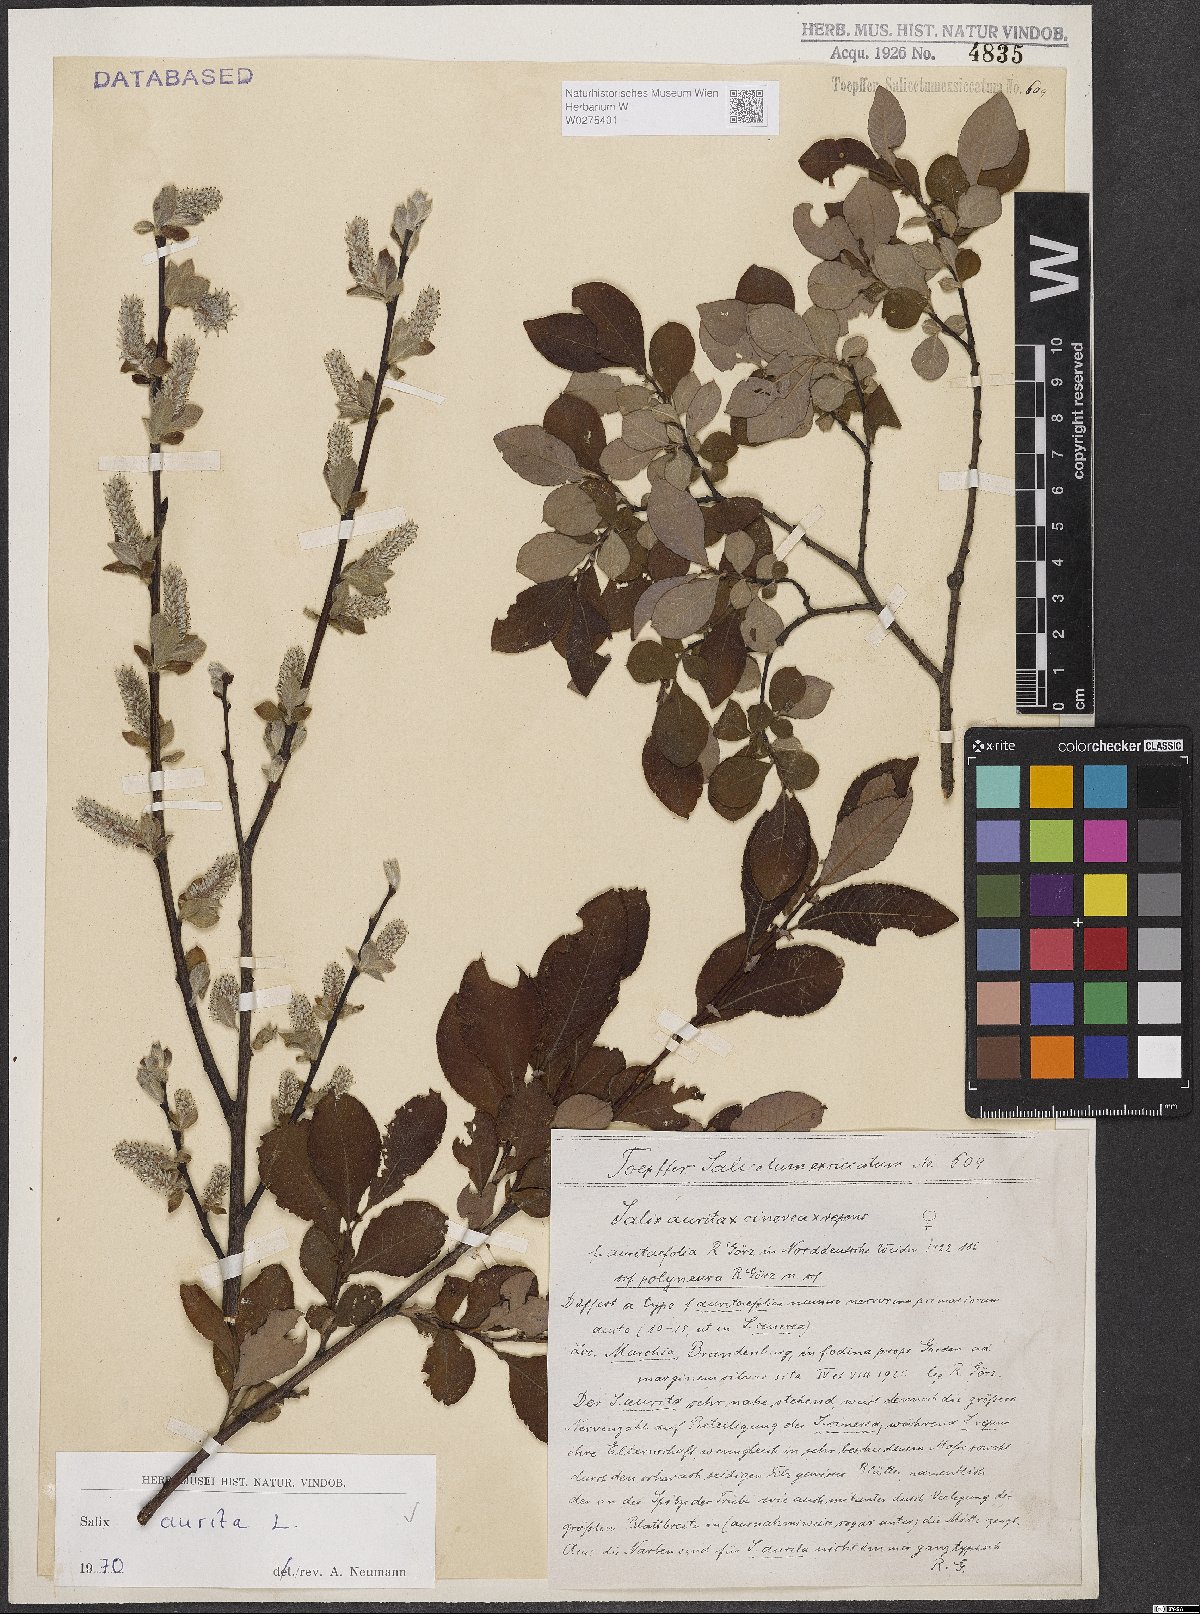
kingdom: Plantae
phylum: Tracheophyta
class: Magnoliopsida
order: Malpighiales
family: Salicaceae
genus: Salix
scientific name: Salix aurita
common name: Eared willow
